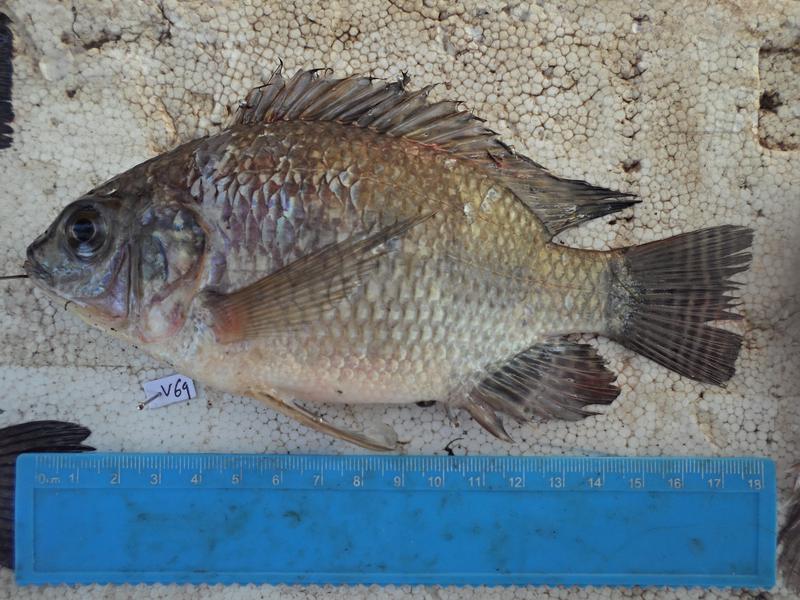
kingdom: Animalia
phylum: Chordata
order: Perciformes
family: Cichlidae
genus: Oreochromis
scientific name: Oreochromis niloticus
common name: Nile tilapia
